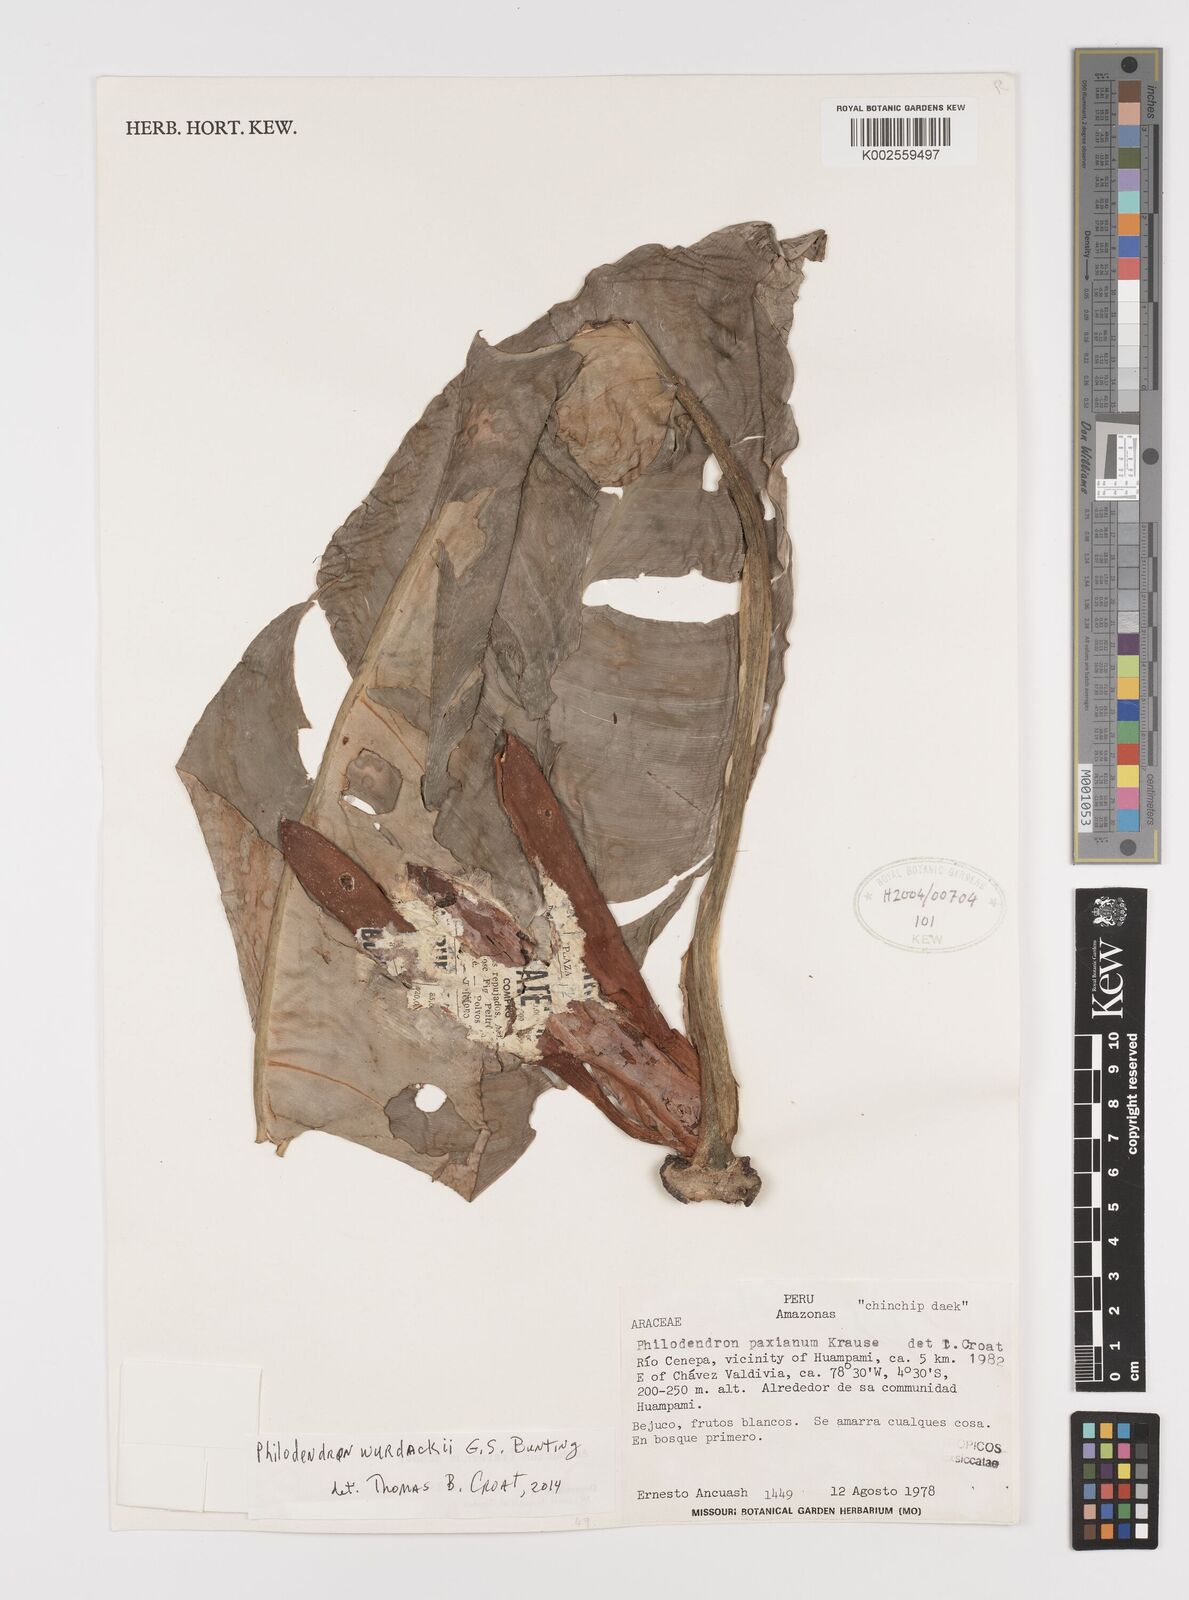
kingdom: Plantae
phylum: Tracheophyta
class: Liliopsida
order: Alismatales
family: Araceae
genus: Philodendron
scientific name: Philodendron wurdackii
